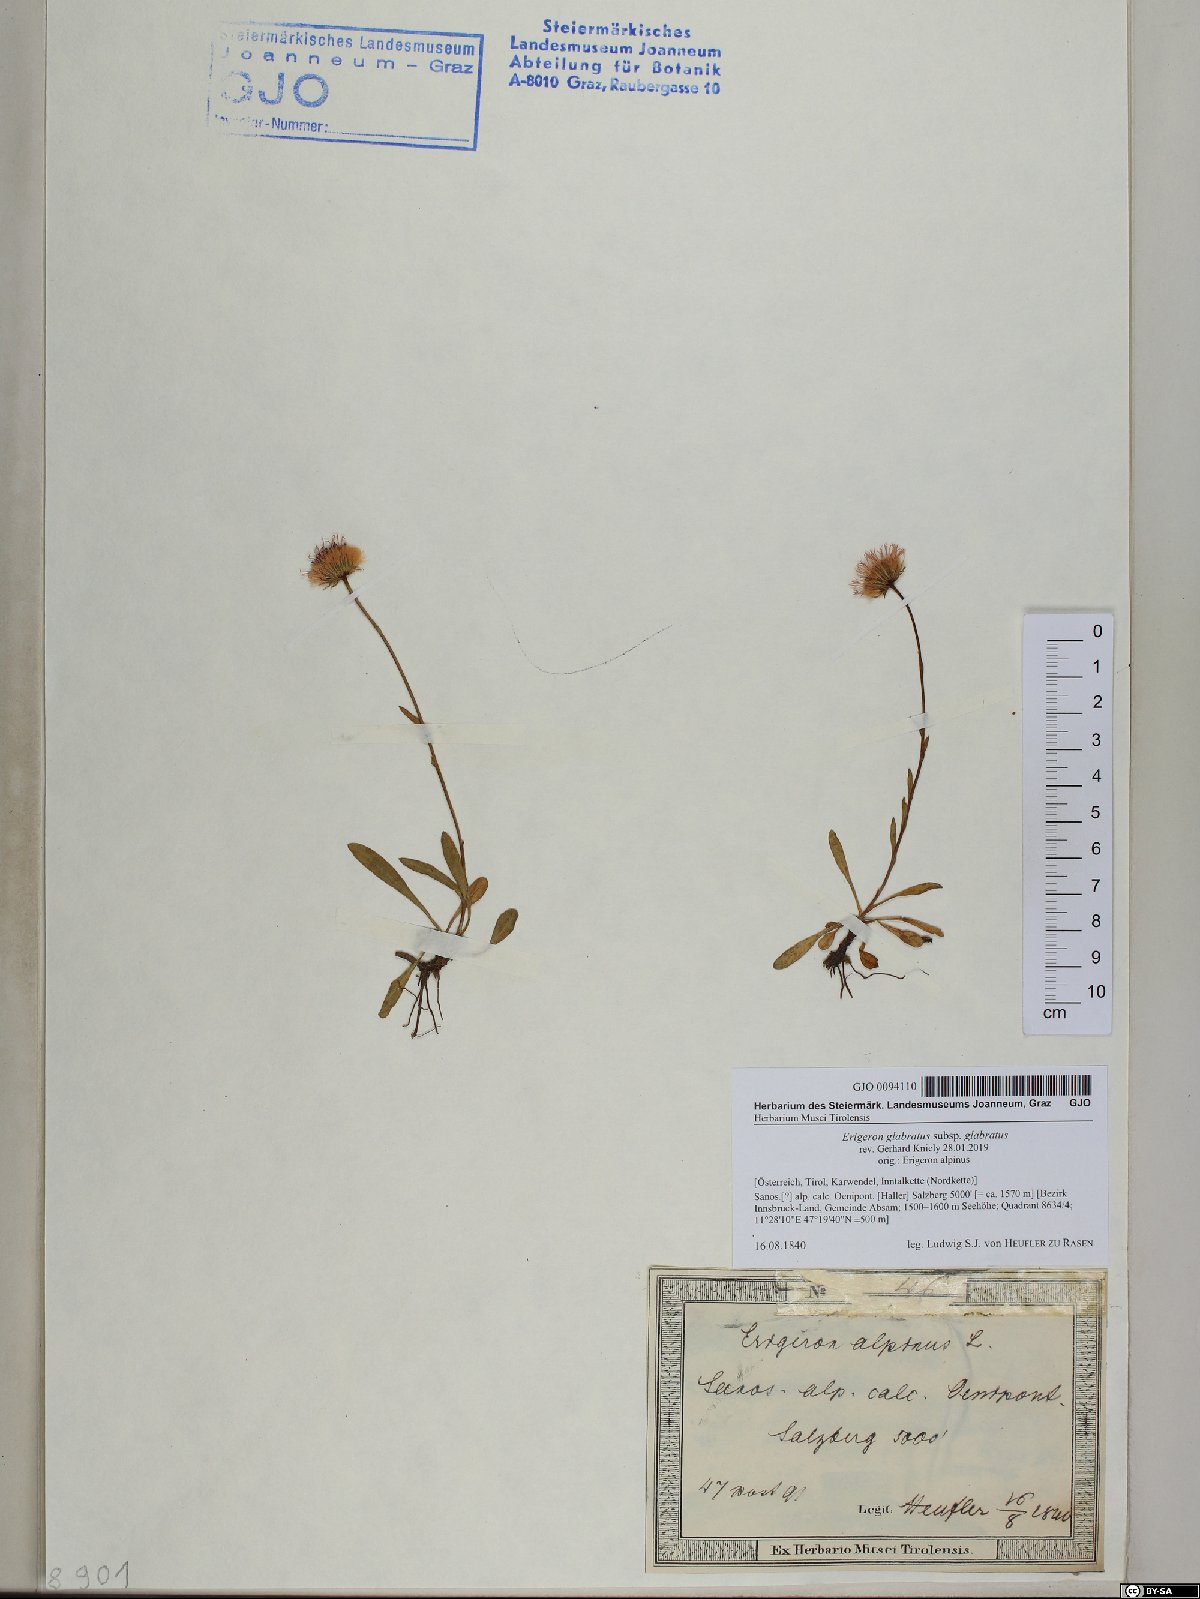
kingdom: Plantae
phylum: Tracheophyta
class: Magnoliopsida
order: Asterales
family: Asteraceae
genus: Erigeron
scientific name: Erigeron glabratus
